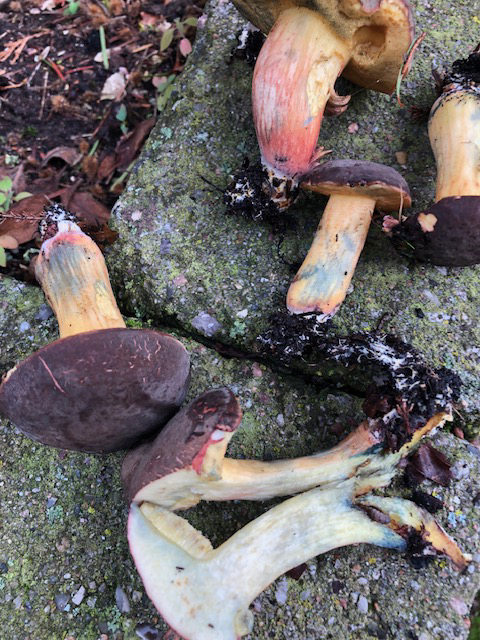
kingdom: Fungi
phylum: Basidiomycota
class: Agaricomycetes
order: Boletales
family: Boletaceae
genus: Xerocomellus
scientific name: Xerocomellus cisalpinus
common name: finsprukken rørhat
